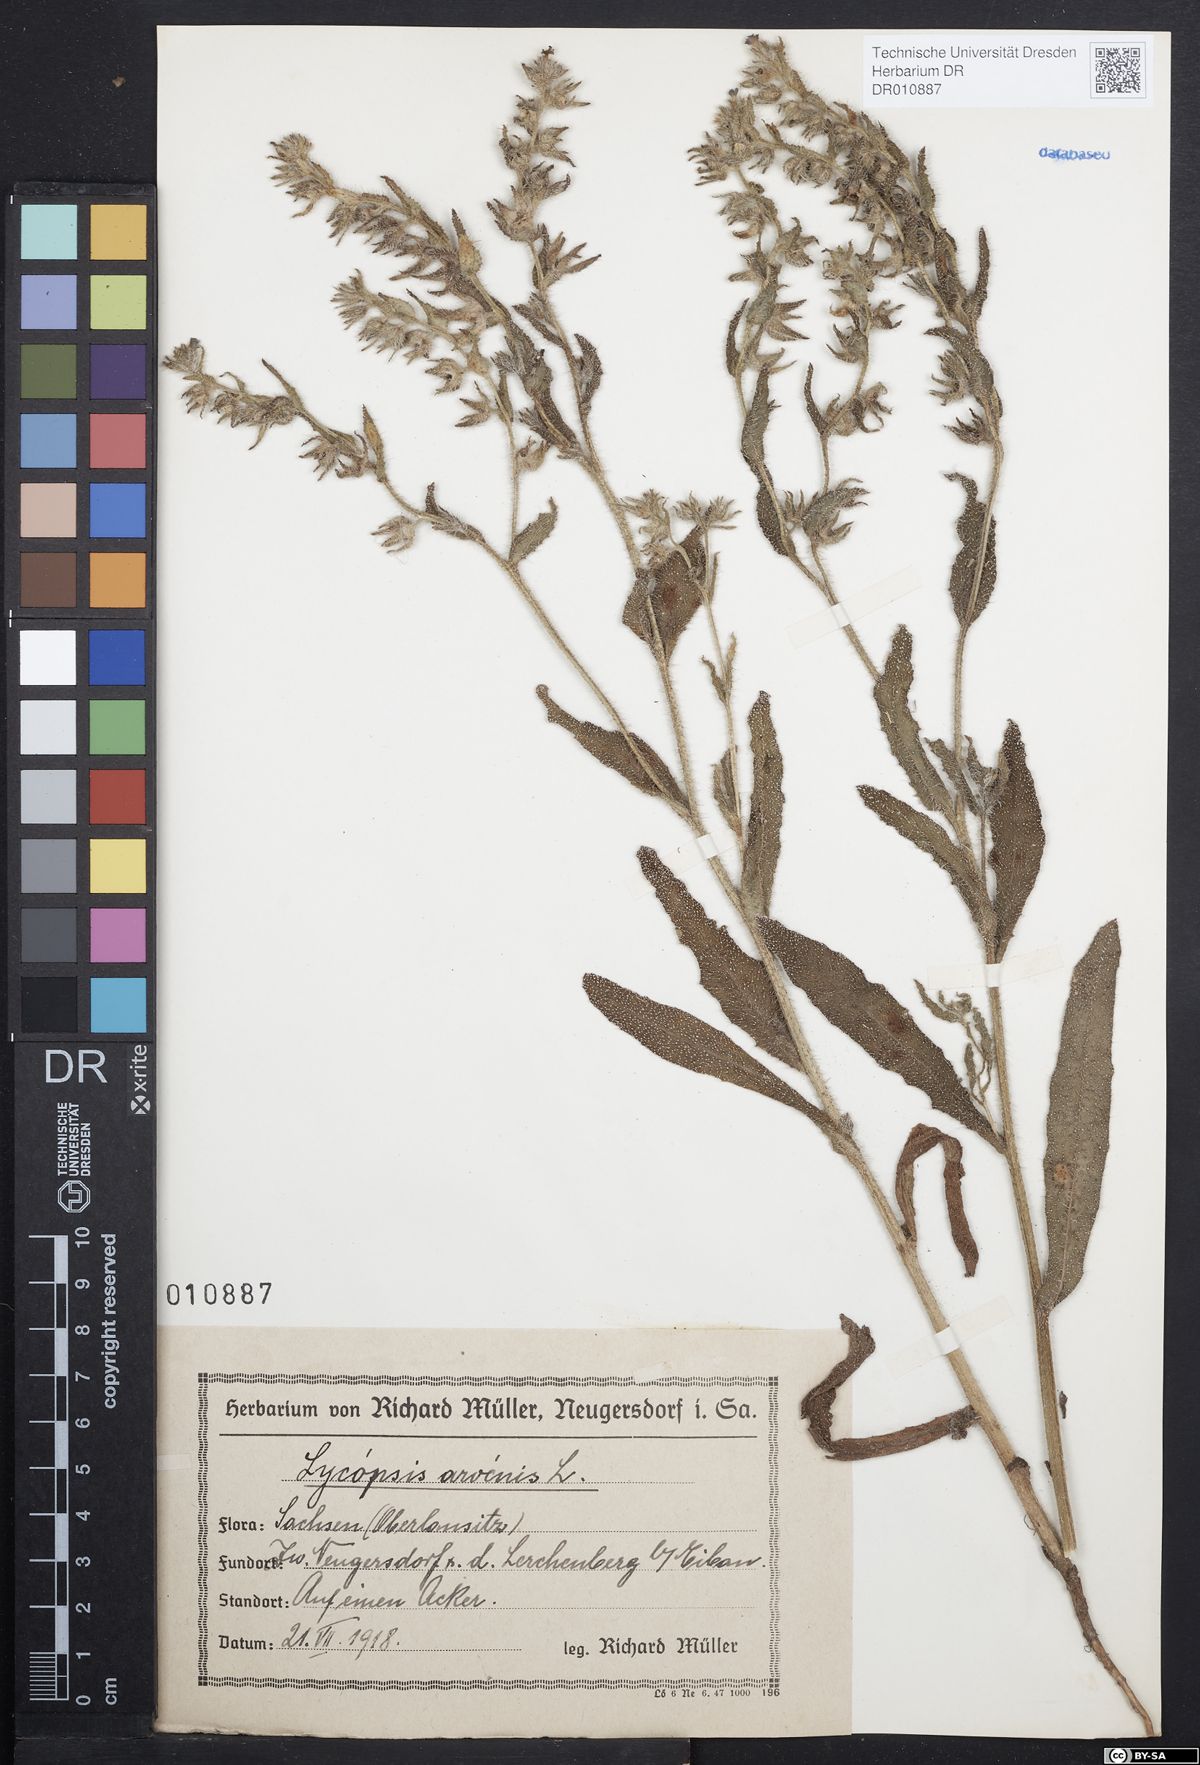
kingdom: Plantae
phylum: Tracheophyta
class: Magnoliopsida
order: Boraginales
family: Boraginaceae
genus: Lycopsis
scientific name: Lycopsis arvensis
